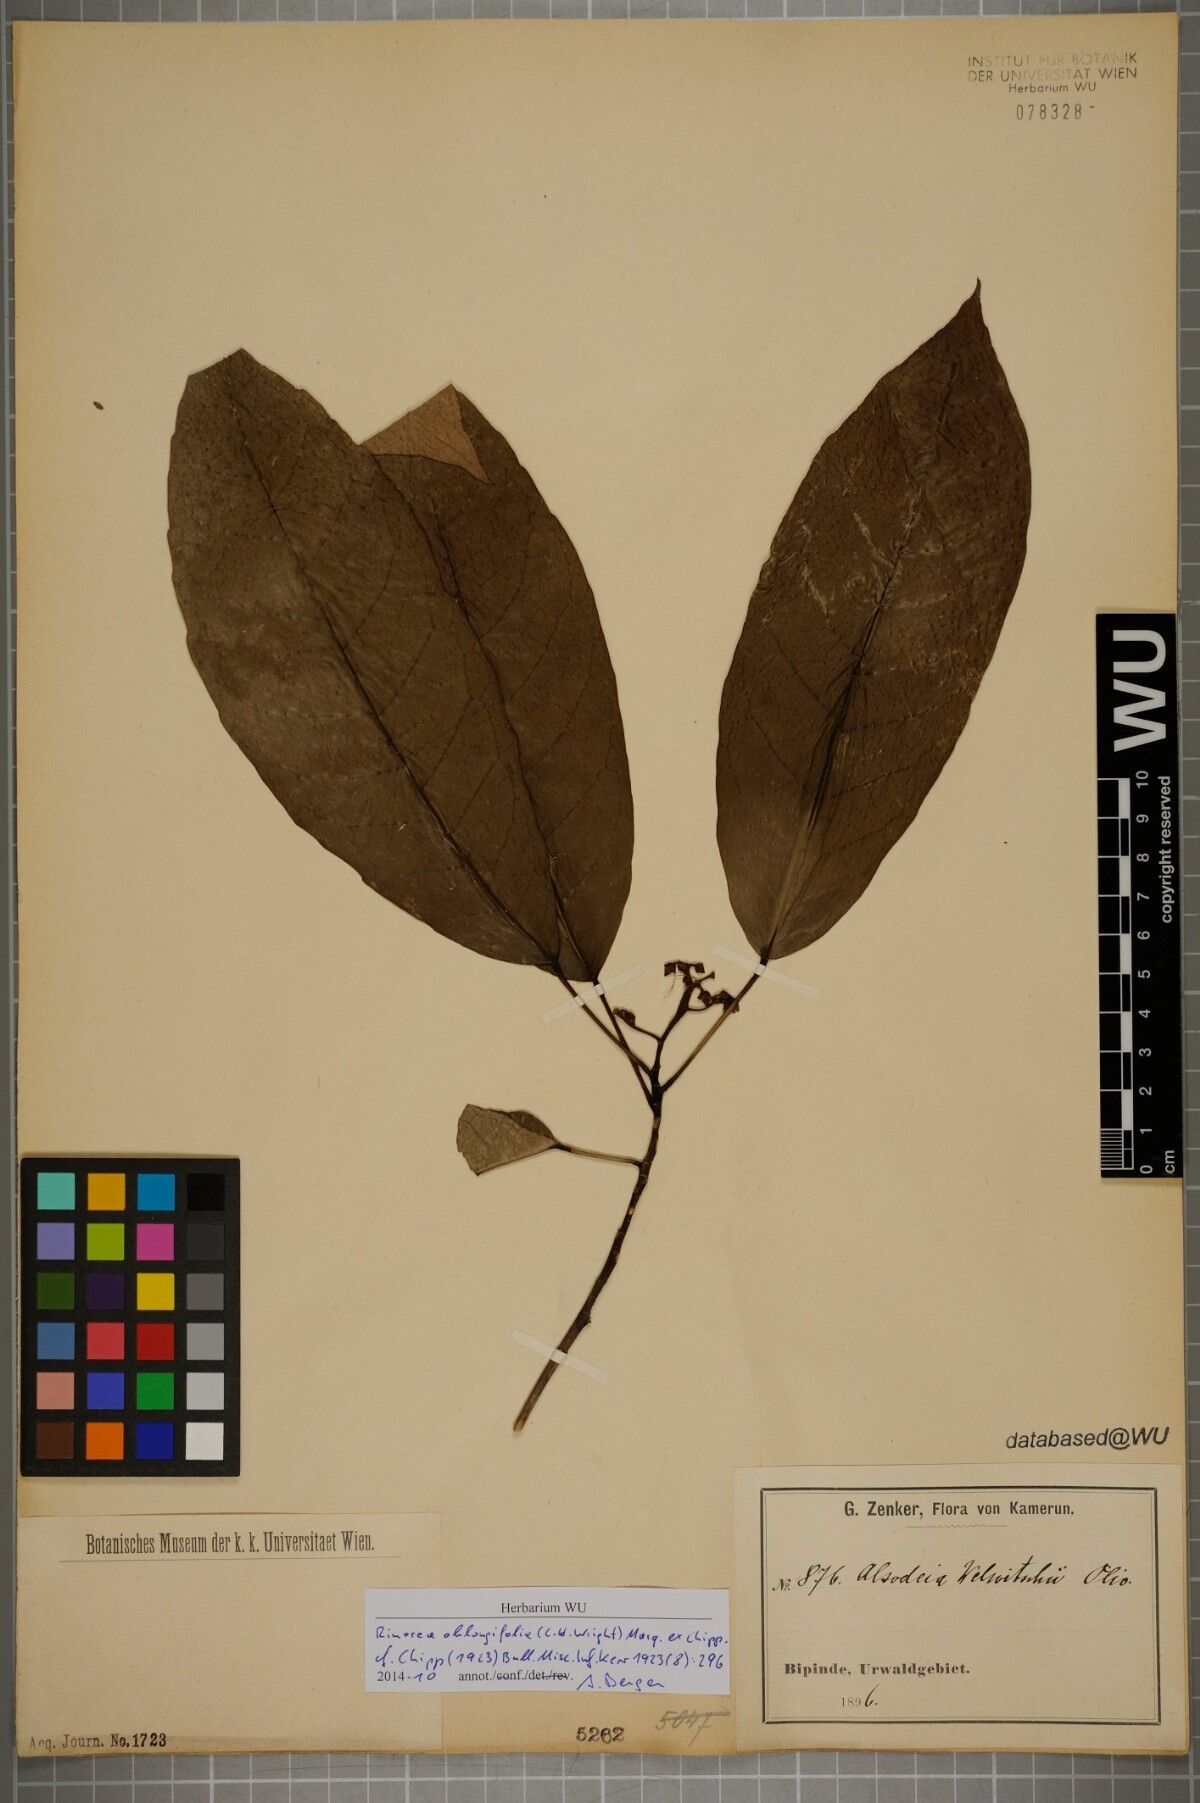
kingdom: Plantae
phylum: Tracheophyta
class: Magnoliopsida
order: Apiales
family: Pittosporaceae
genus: Marianthus
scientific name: Marianthus coeruleopunctatus
